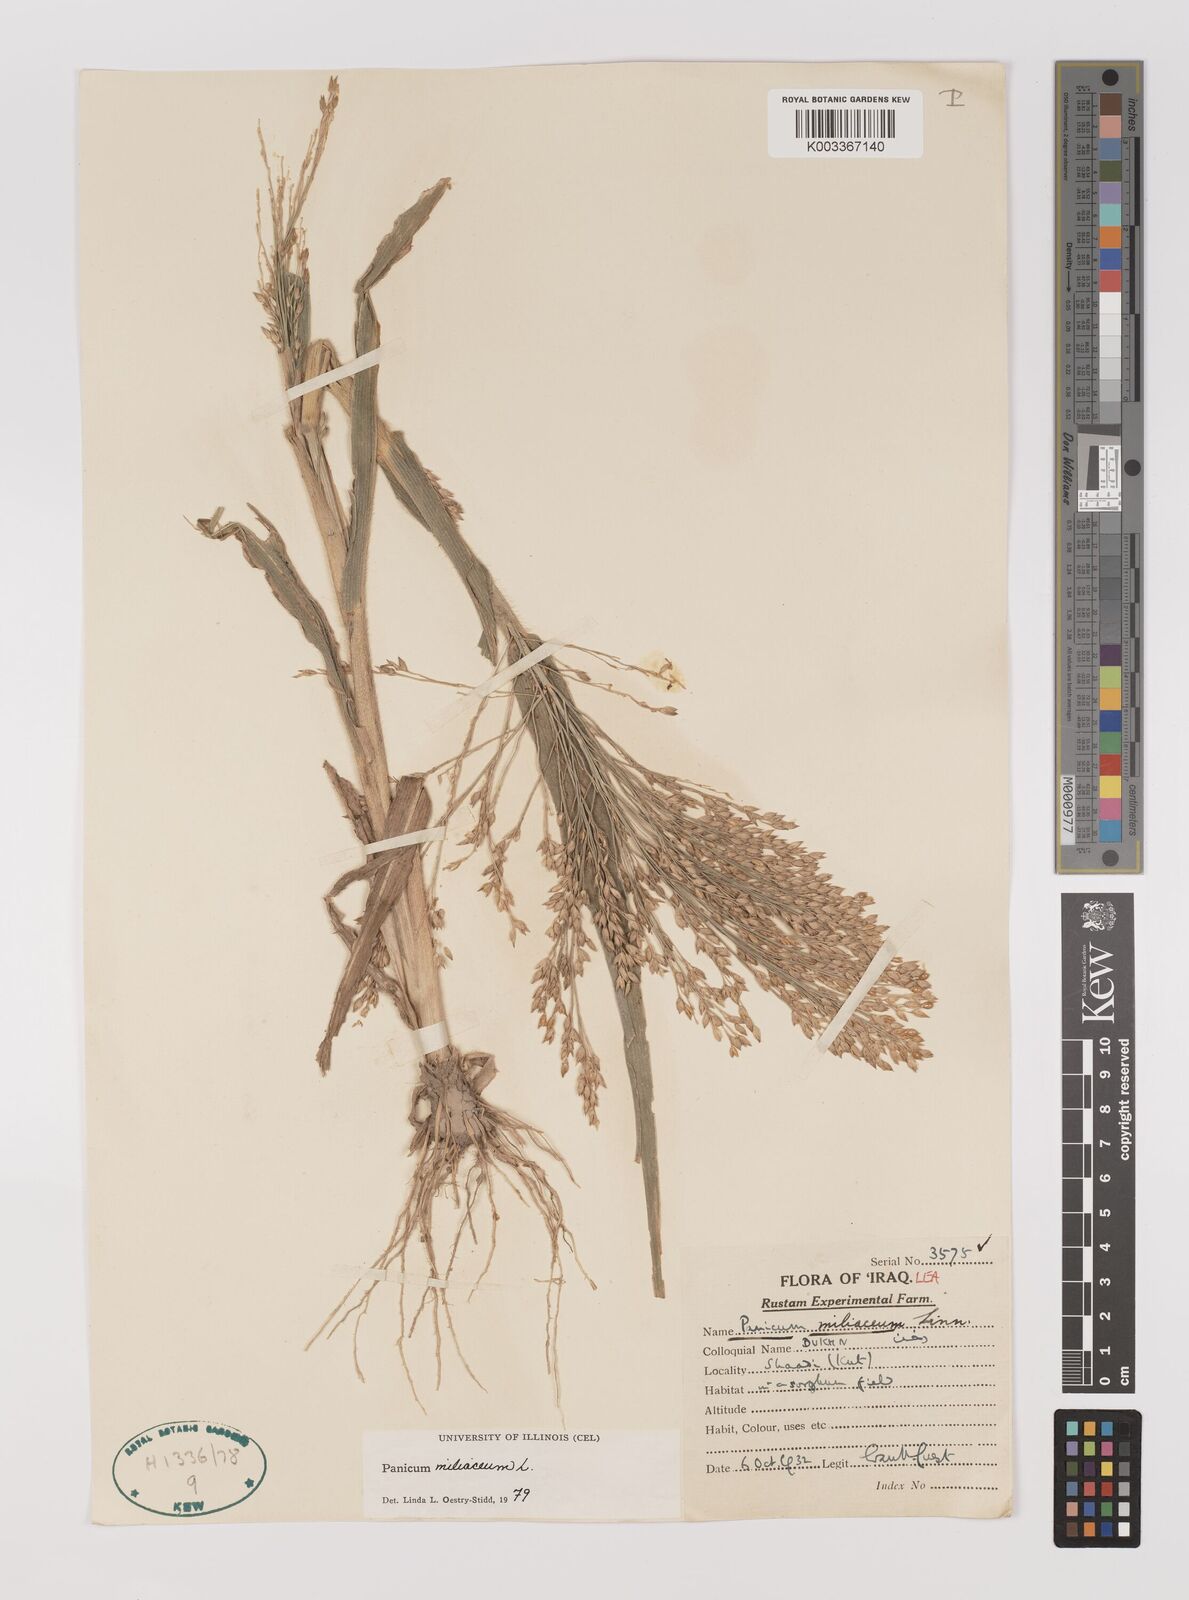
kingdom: Plantae
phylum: Tracheophyta
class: Liliopsida
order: Poales
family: Poaceae
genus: Panicum
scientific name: Panicum miliaceum
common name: Common millet
